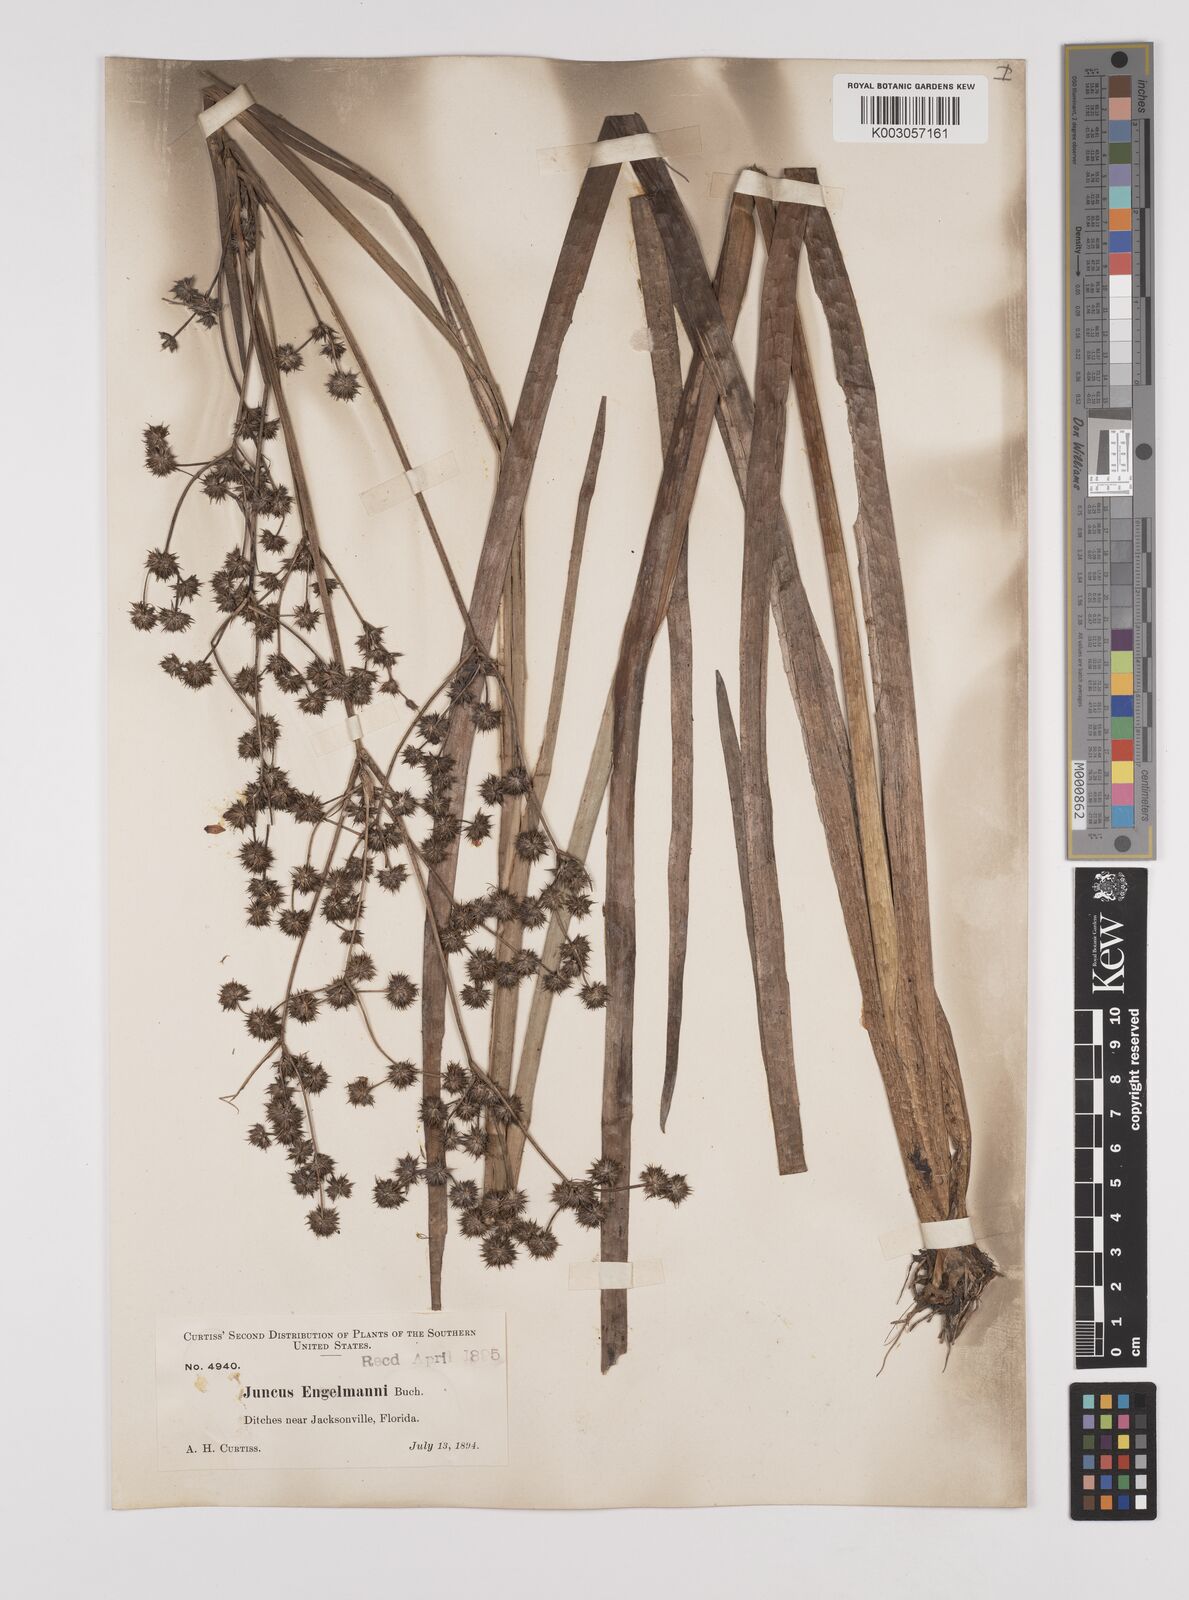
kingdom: Plantae
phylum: Tracheophyta
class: Liliopsida
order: Poales
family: Juncaceae
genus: Juncus
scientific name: Juncus articulatus
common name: Jointed rush
